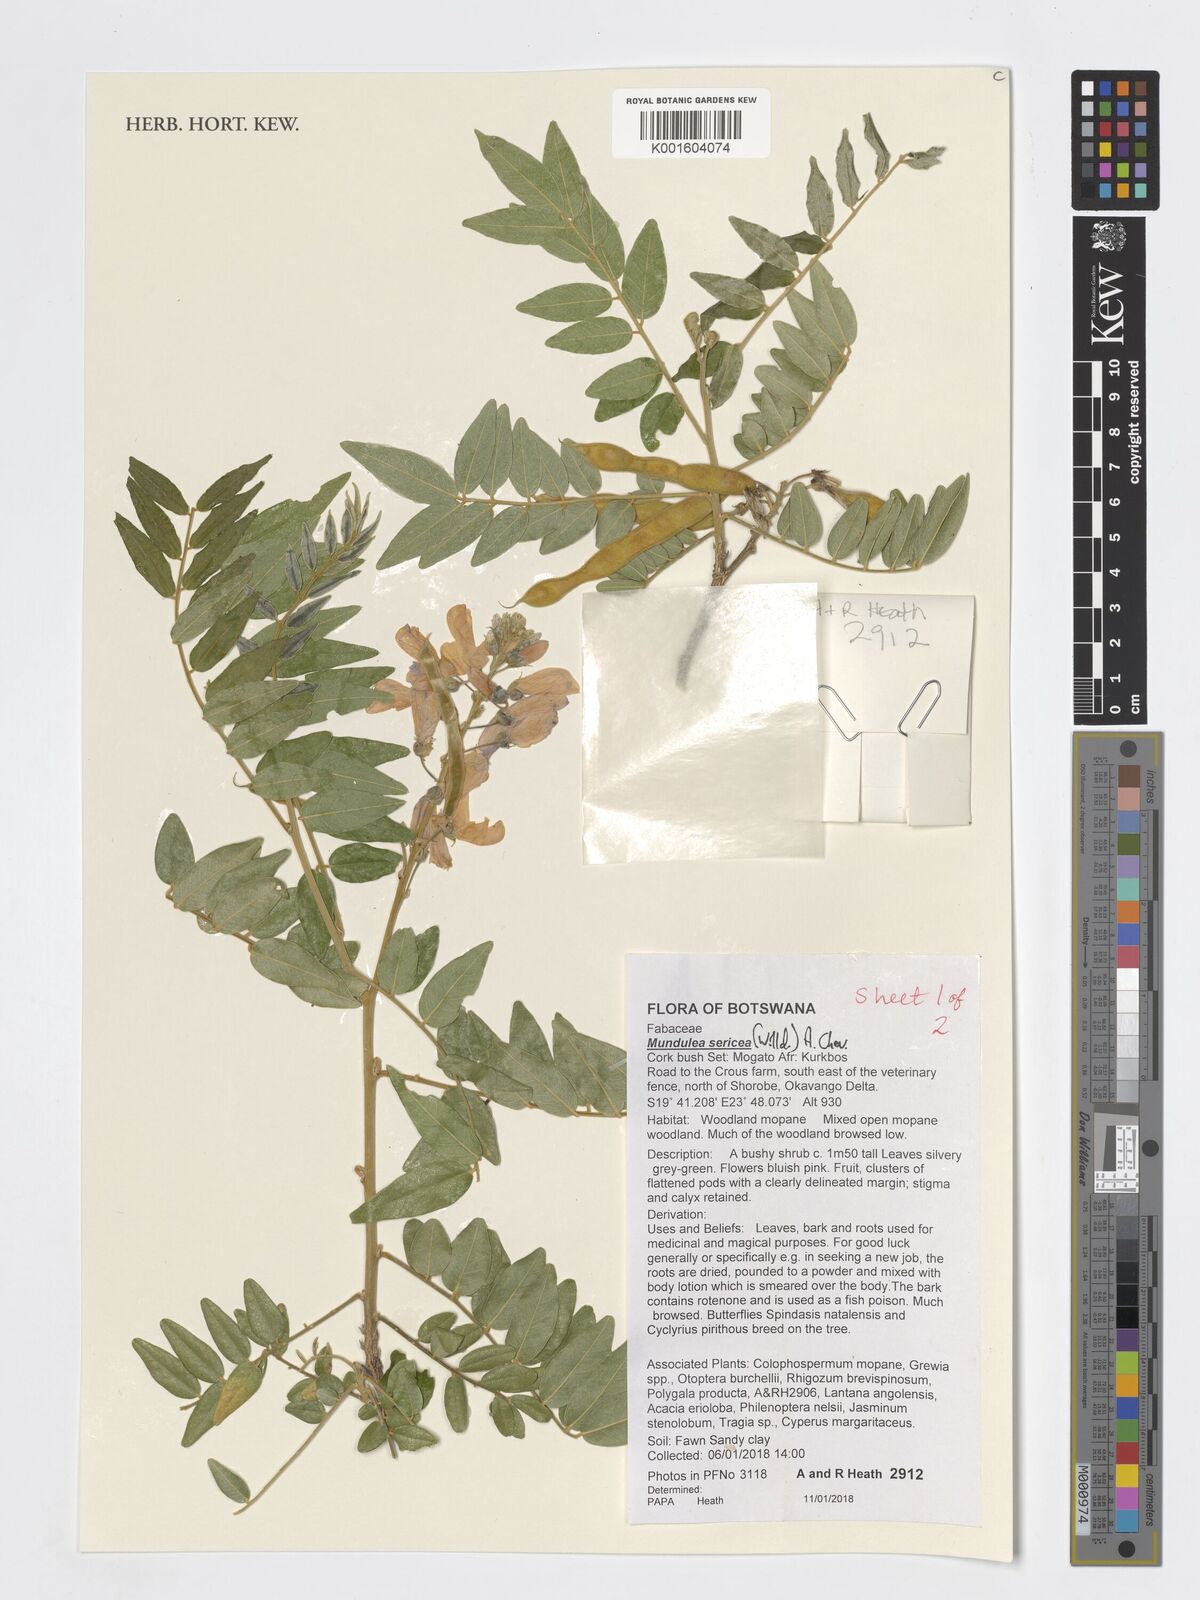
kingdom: Plantae
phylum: Tracheophyta
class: Magnoliopsida
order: Fabales
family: Fabaceae
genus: Mundulea
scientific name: Mundulea sericea
